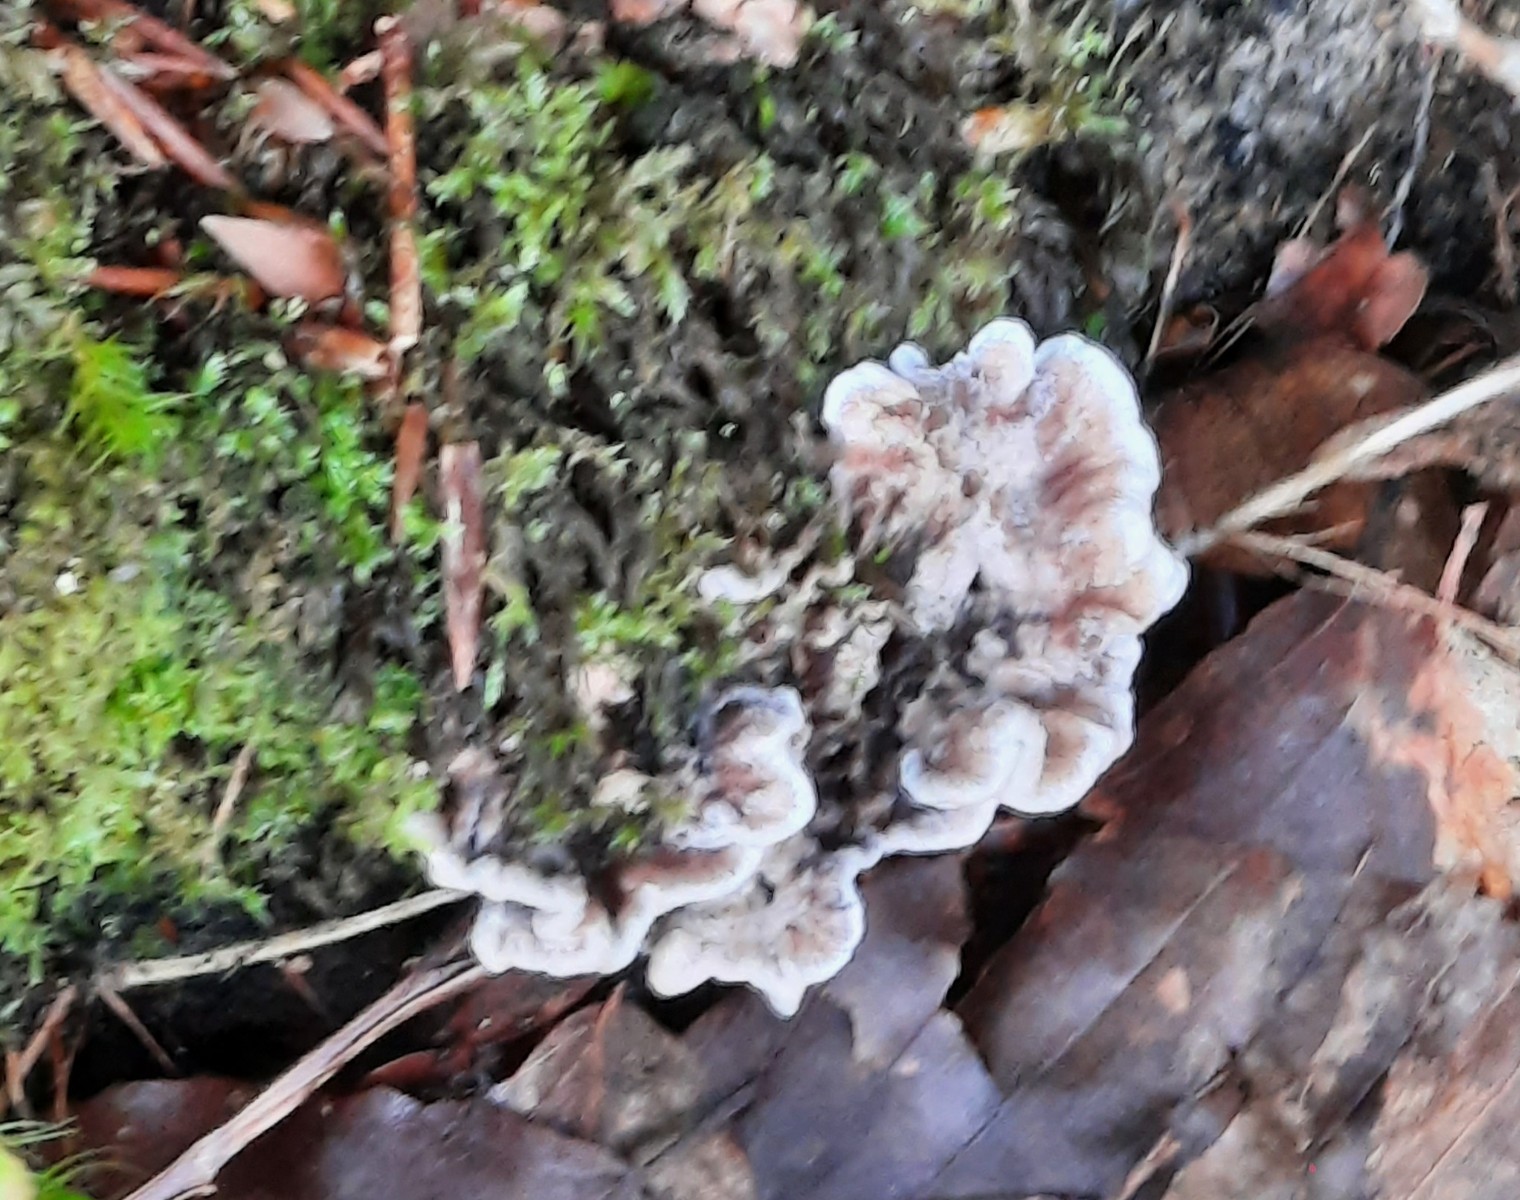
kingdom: Fungi
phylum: Basidiomycota
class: Agaricomycetes
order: Thelephorales
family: Thelephoraceae
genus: Phellodon
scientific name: Phellodon confluens
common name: pjaltet duftpigsvamp
